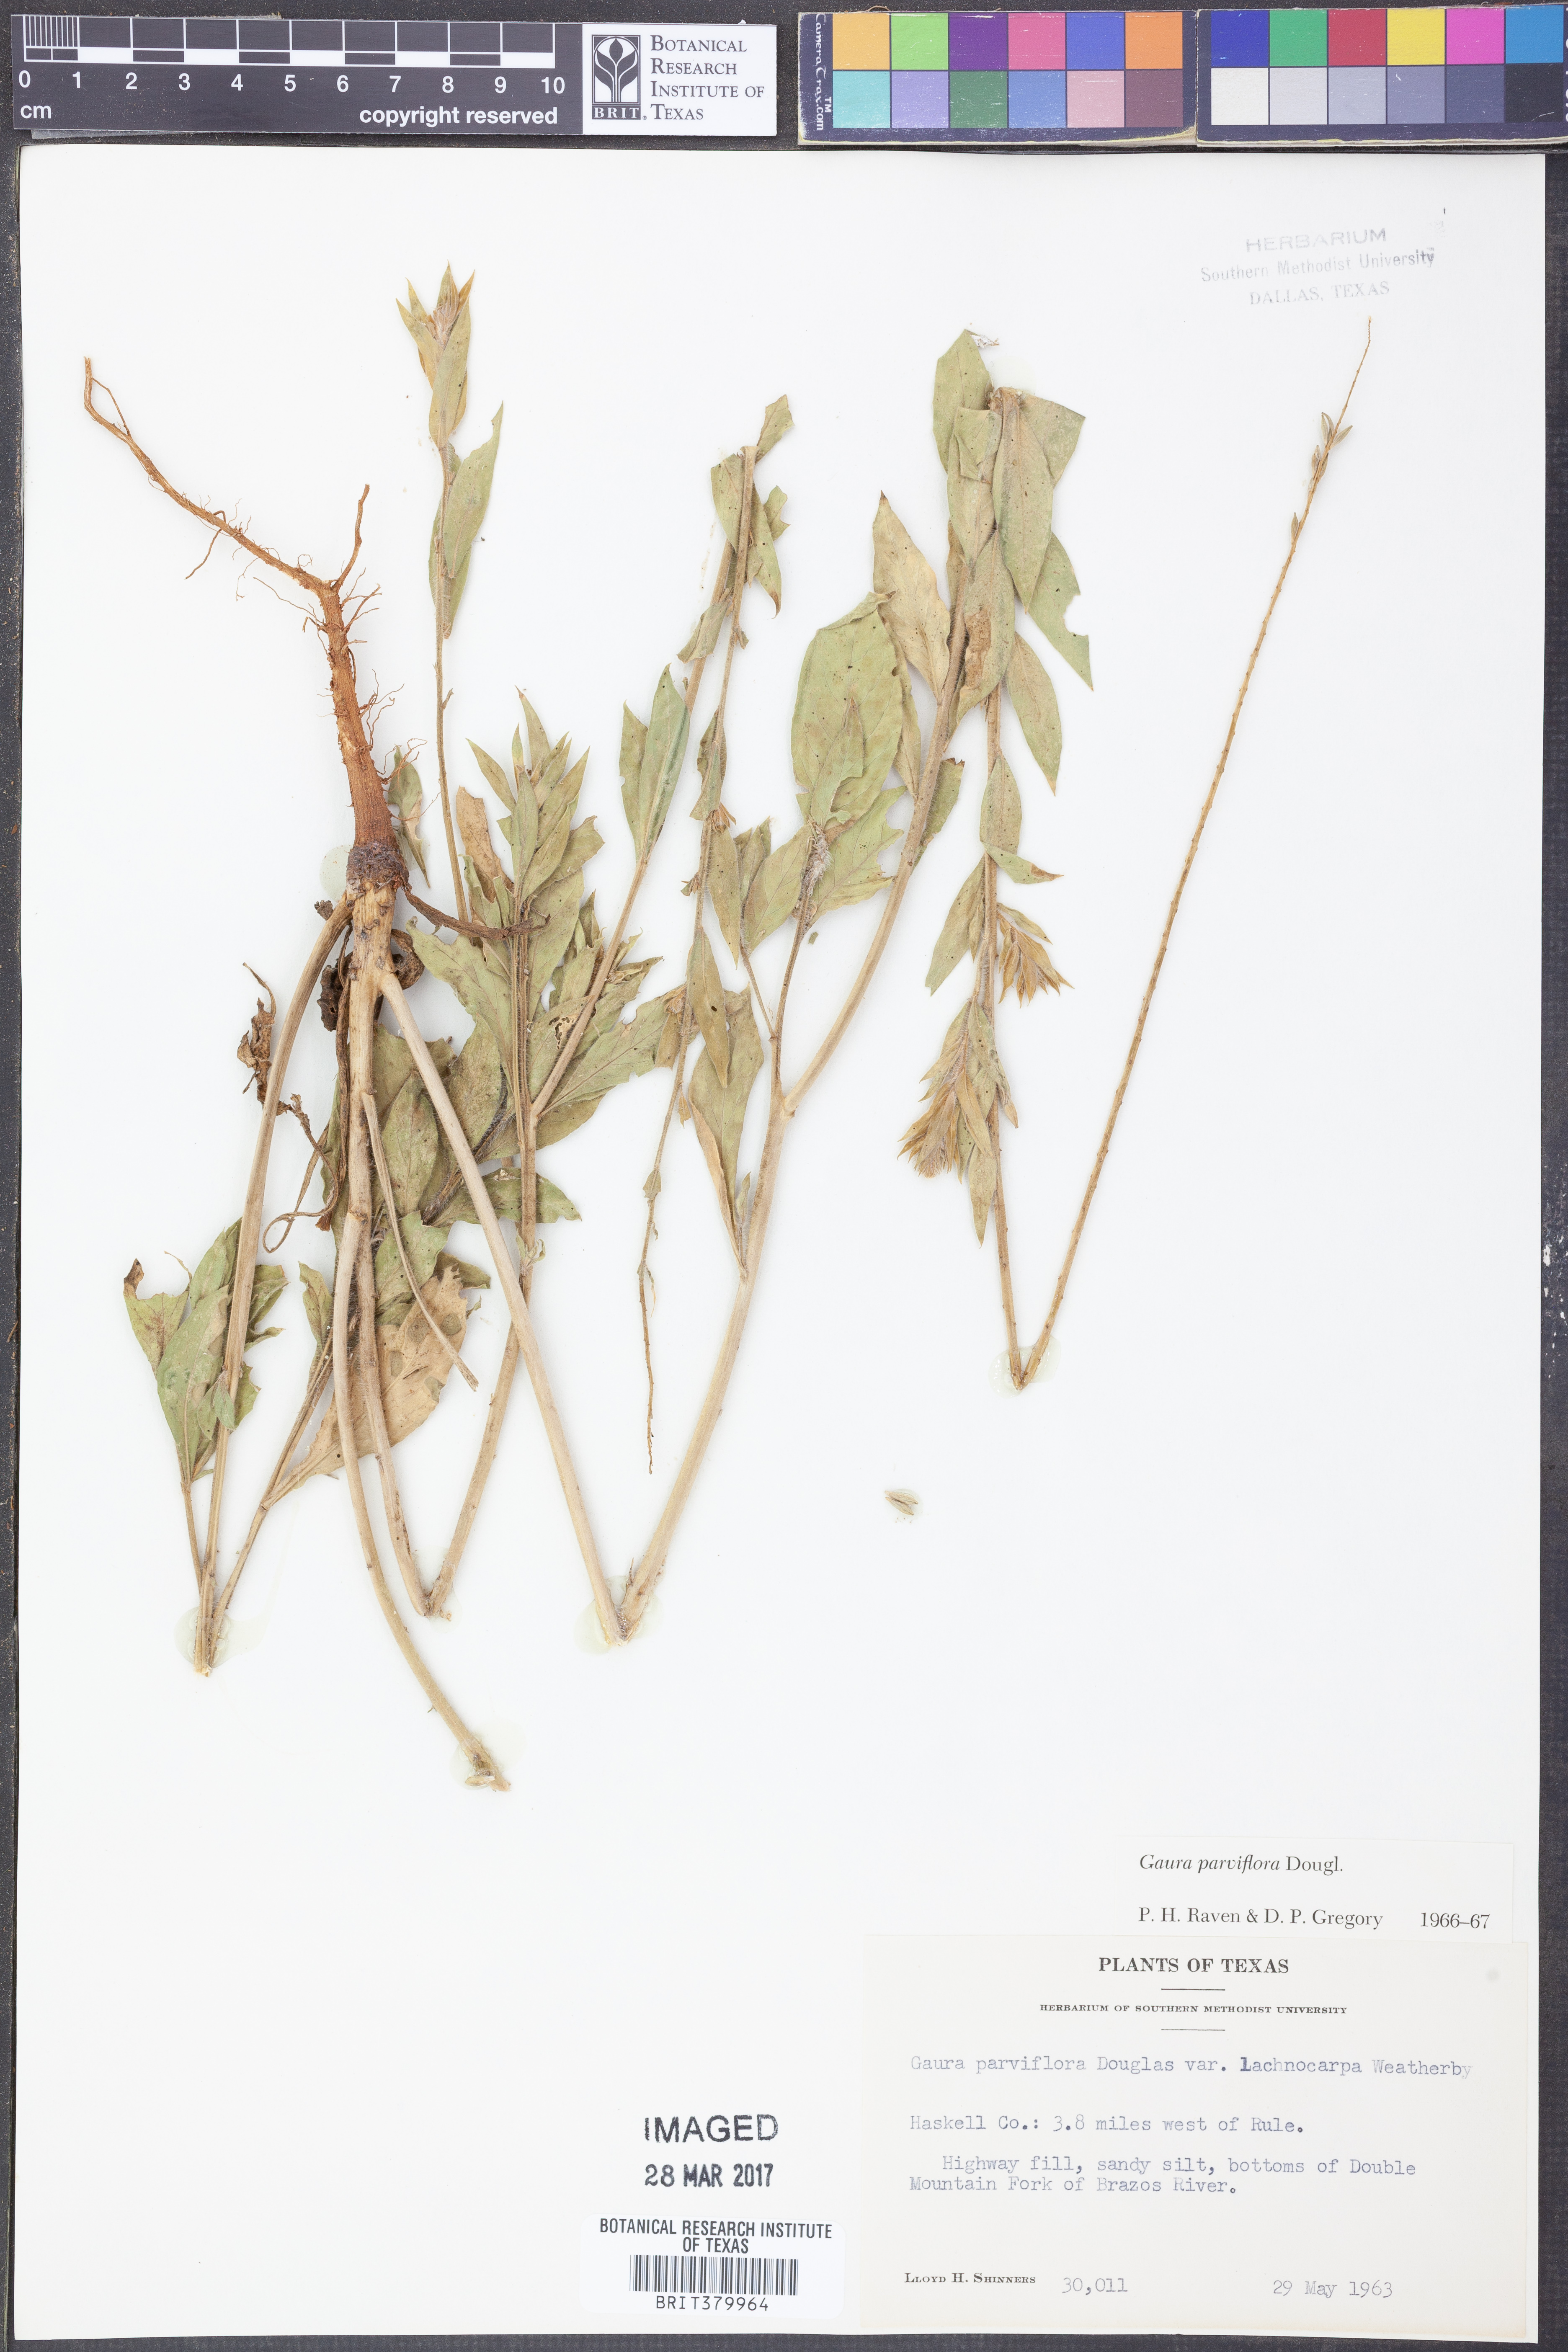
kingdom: Plantae
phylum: Tracheophyta
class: Magnoliopsida
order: Myrtales
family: Onagraceae
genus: Oenothera
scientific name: Oenothera curtiflora
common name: Velvetweed
